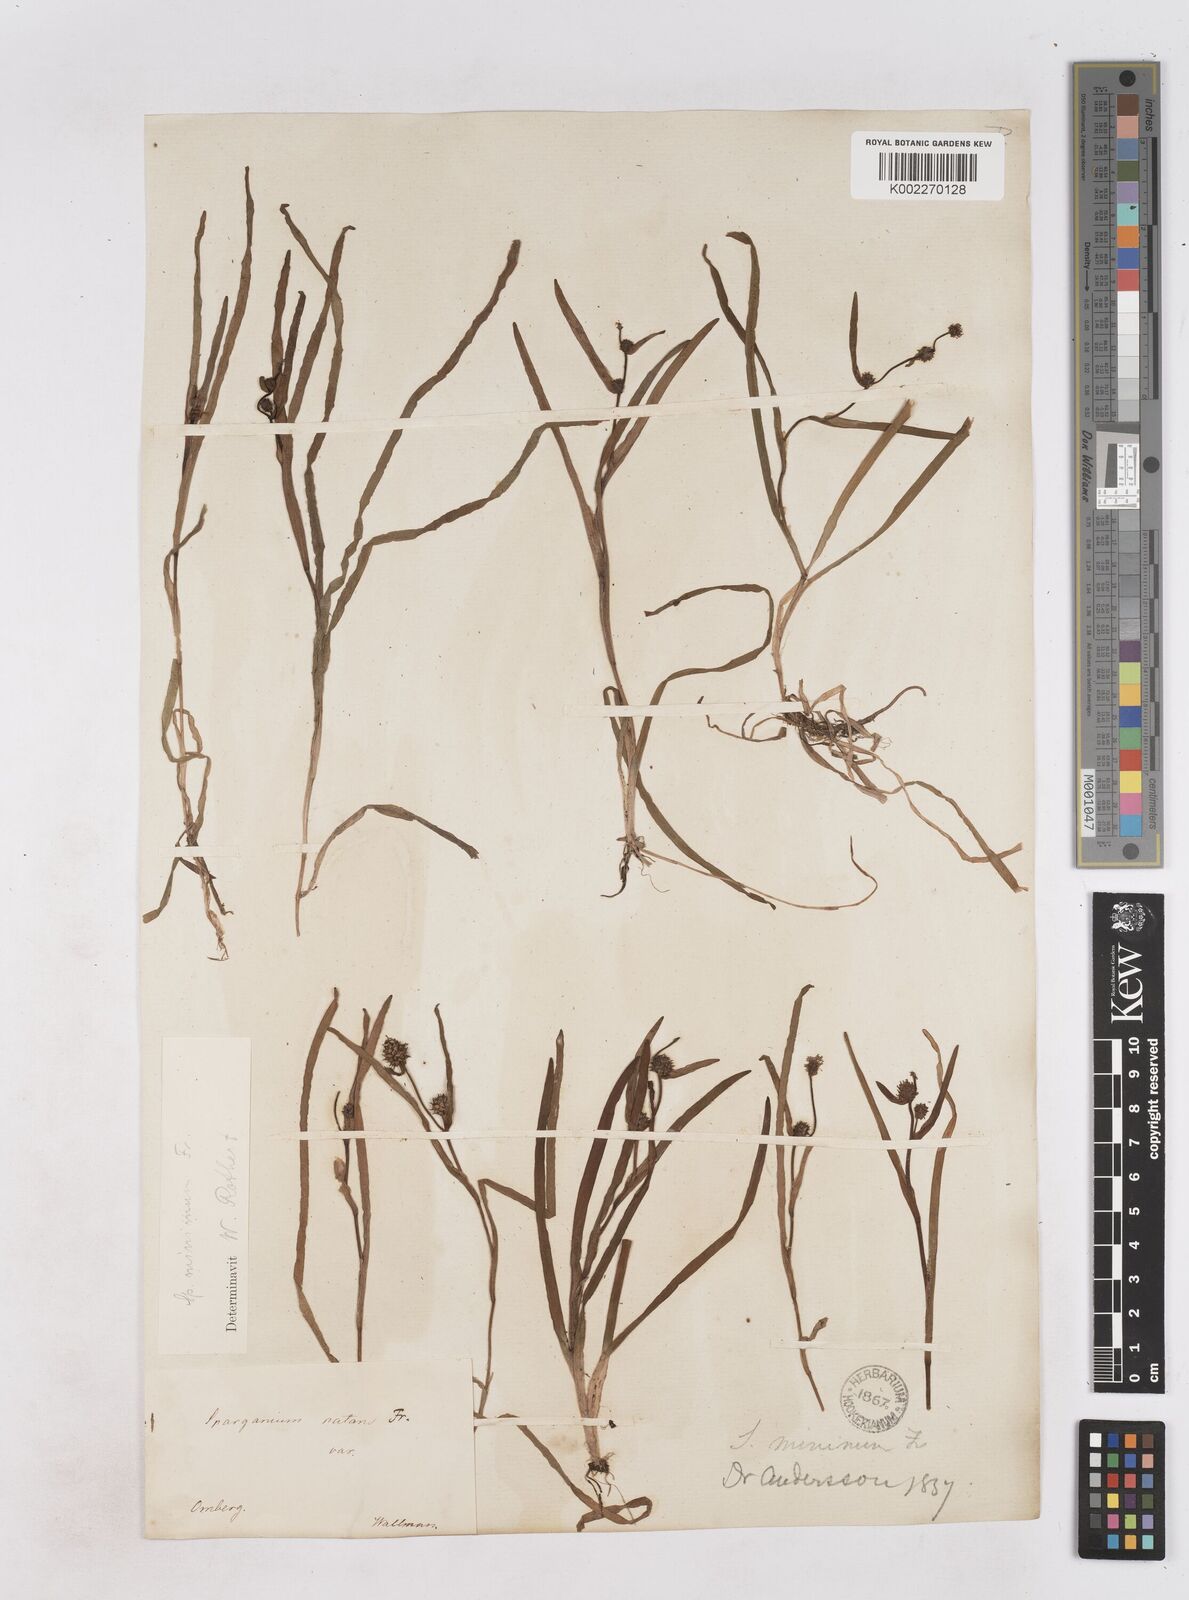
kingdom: Plantae
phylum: Tracheophyta
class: Liliopsida
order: Poales
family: Typhaceae
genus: Sparganium
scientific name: Sparganium natans
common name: Least bur-reed
